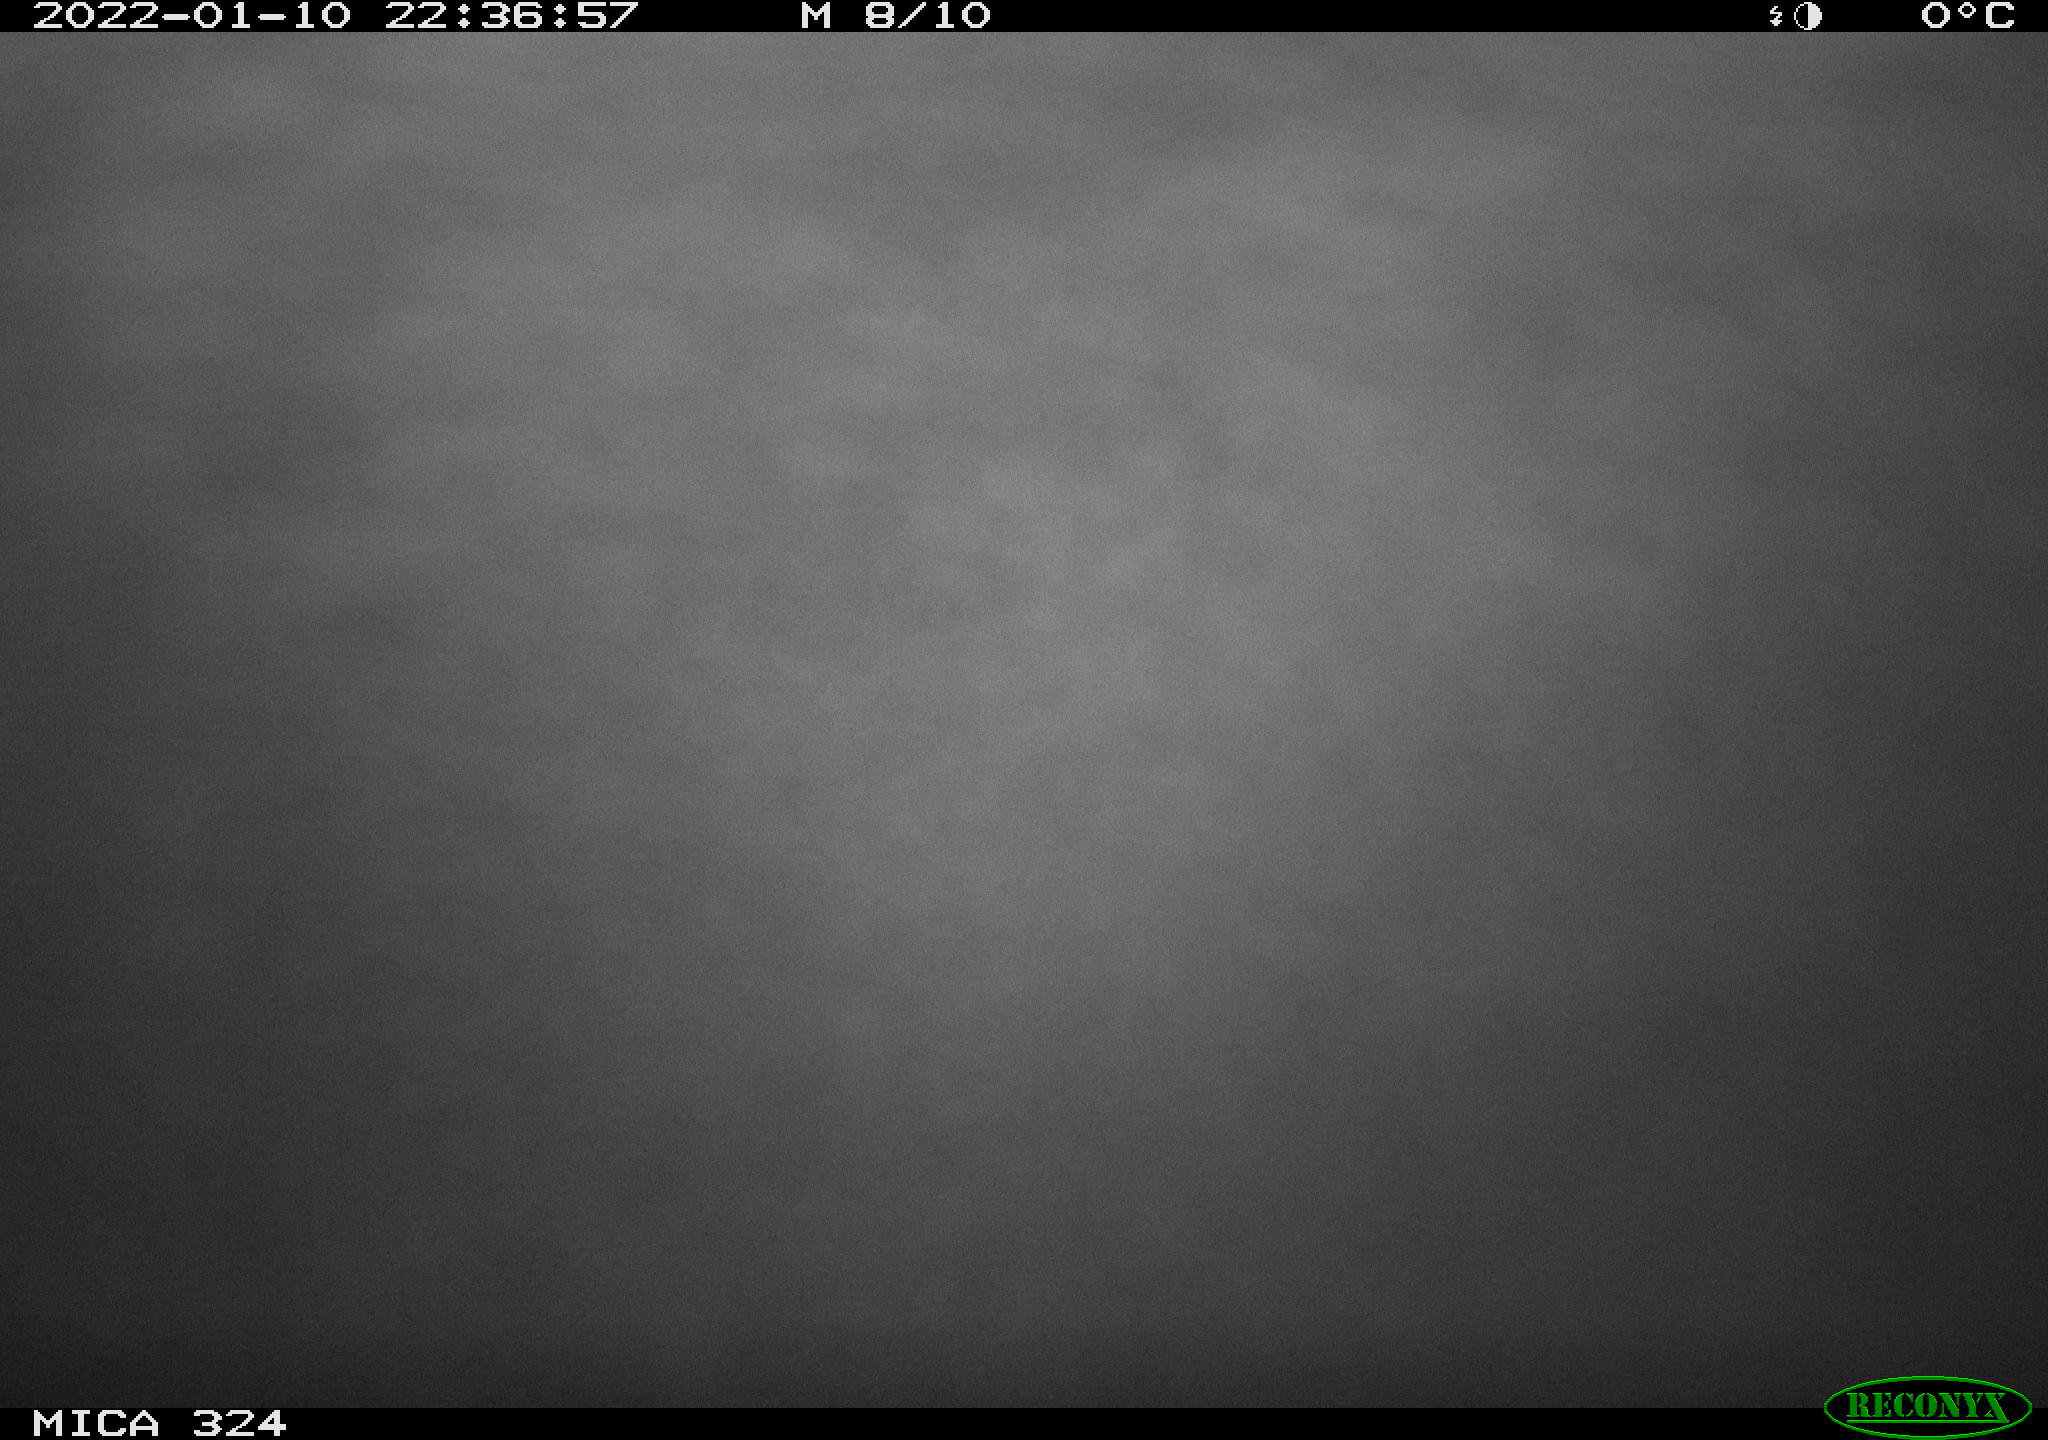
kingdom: Animalia
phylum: Chordata
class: Mammalia
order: Rodentia
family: Cricetidae
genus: Ondatra
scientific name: Ondatra zibethicus
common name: Muskrat
